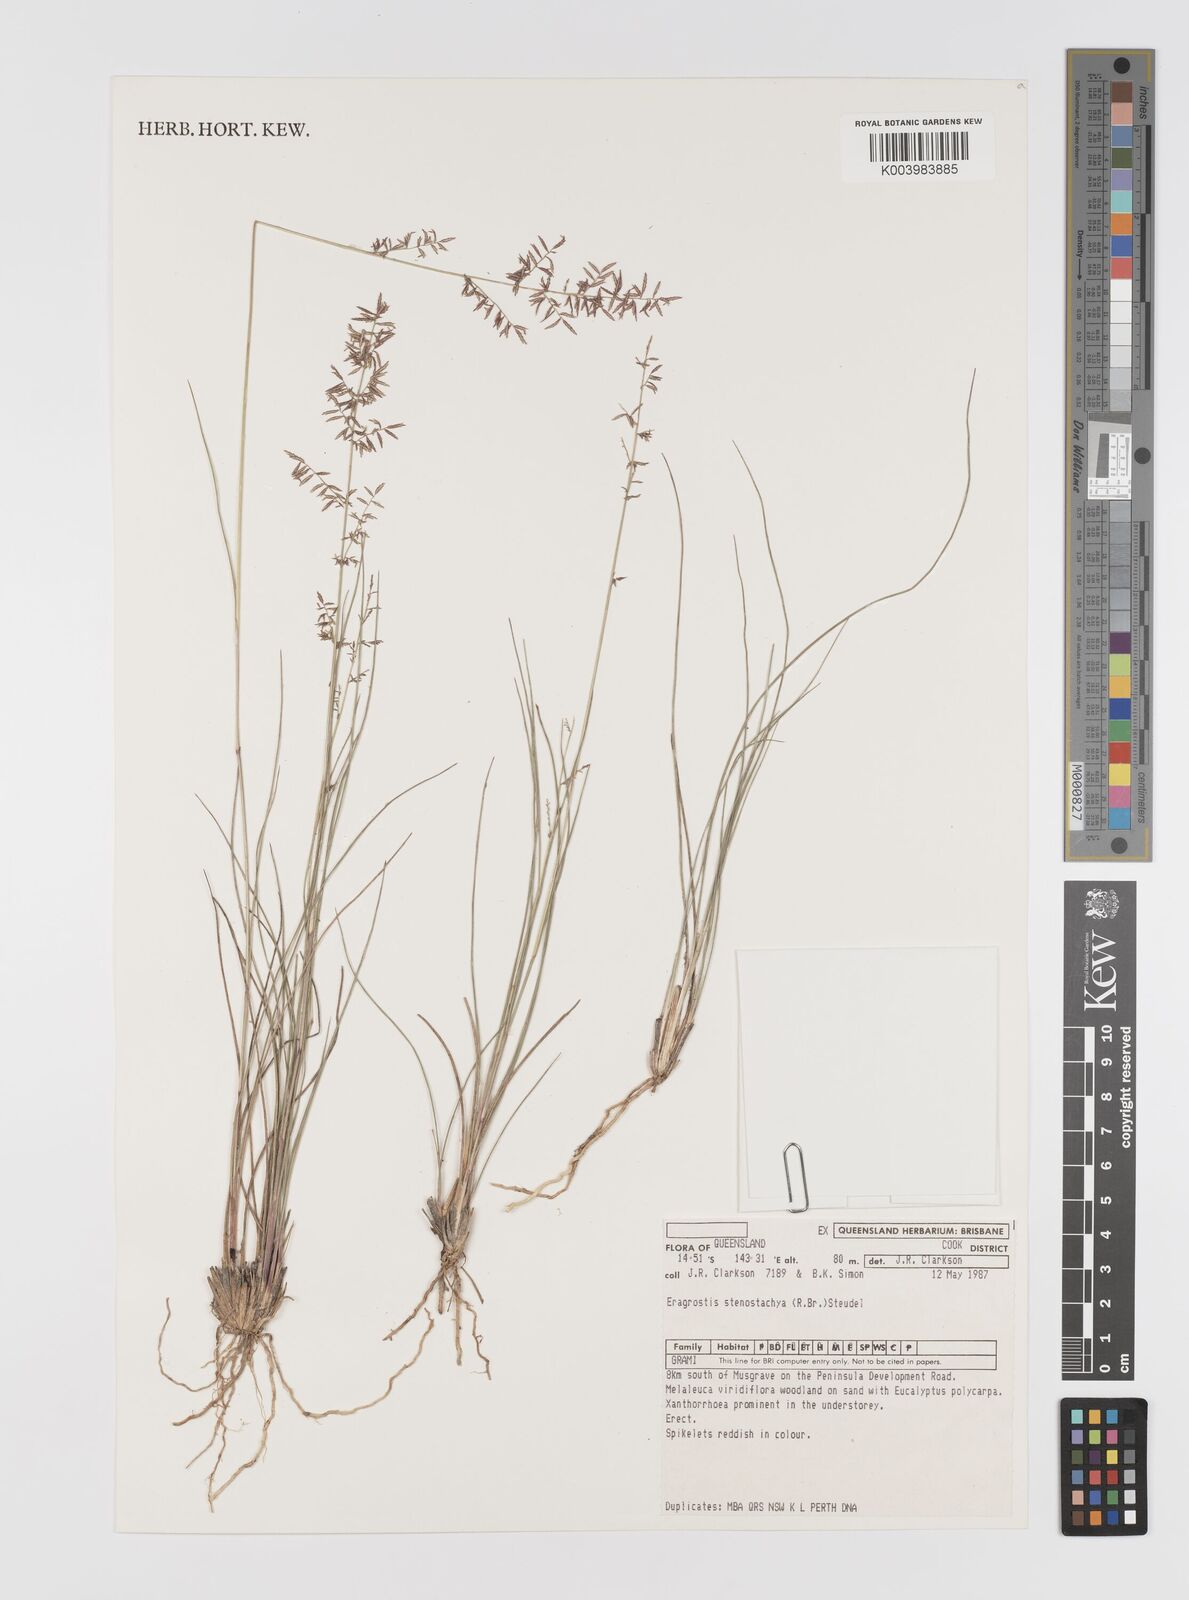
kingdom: Plantae
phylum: Tracheophyta
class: Liliopsida
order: Poales
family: Poaceae
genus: Eragrostis
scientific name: Eragrostis stenostachya
